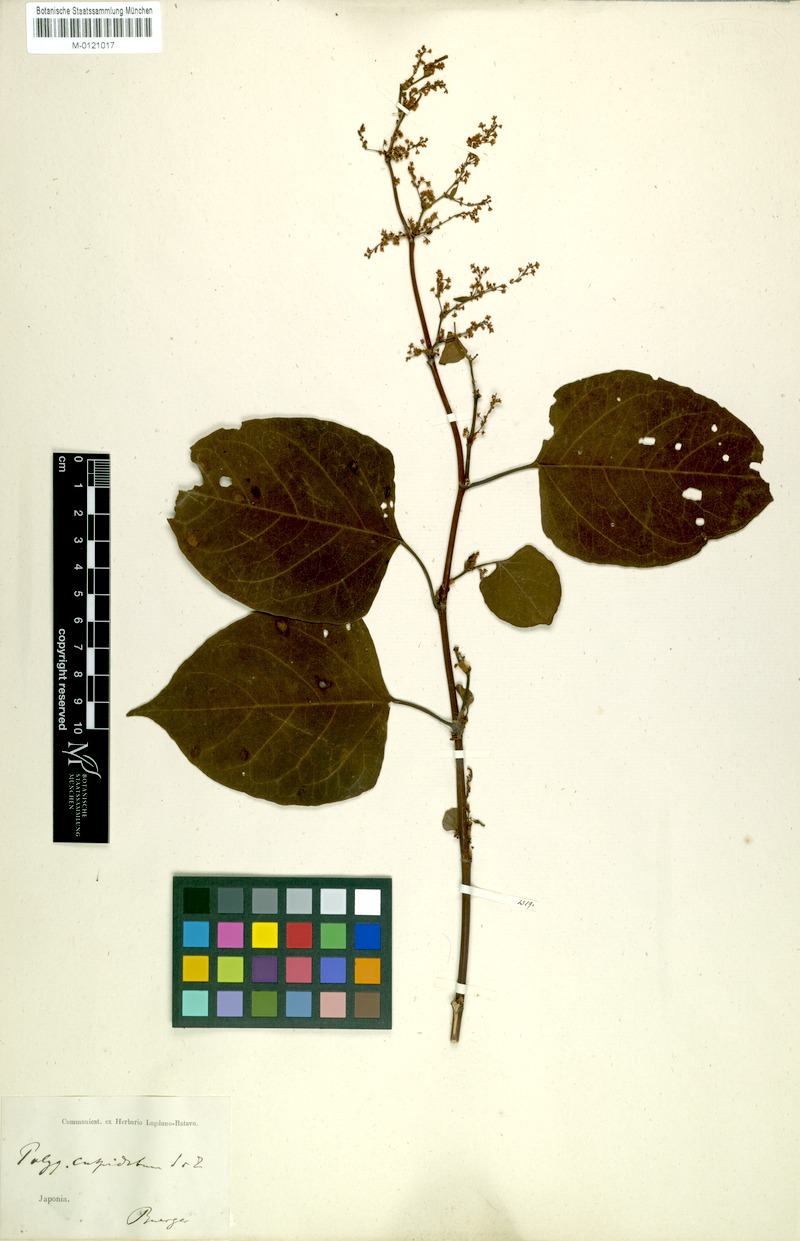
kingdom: Plantae
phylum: Tracheophyta
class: Magnoliopsida
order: Caryophyllales
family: Polygonaceae
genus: Reynoutria
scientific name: Reynoutria japonica
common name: Japanese knotweed
